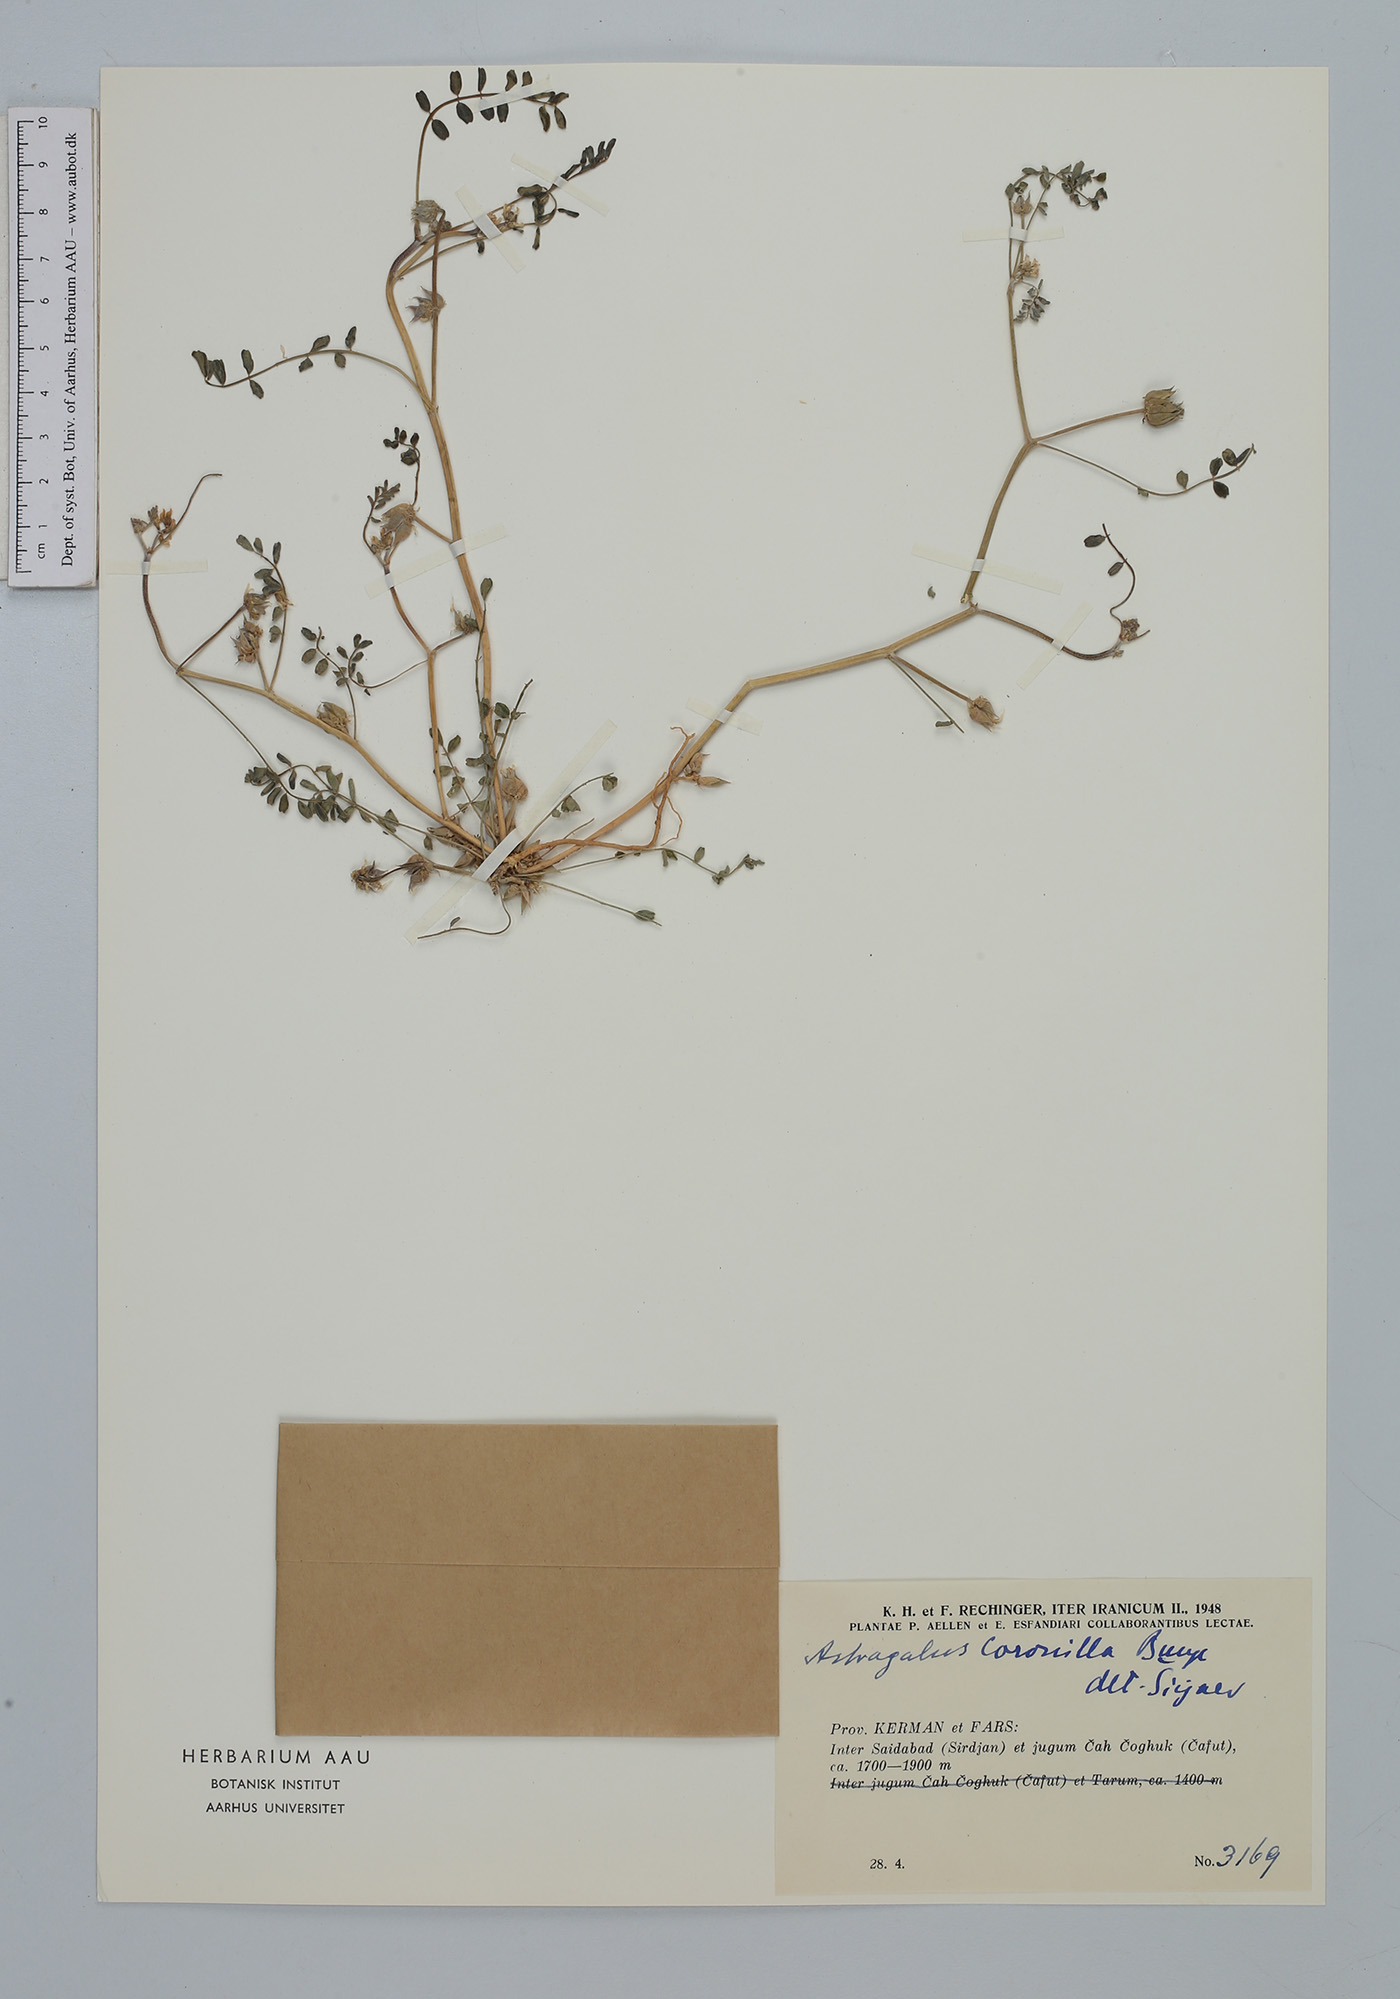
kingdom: Plantae
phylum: Tracheophyta
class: Magnoliopsida
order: Fabales
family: Fabaceae
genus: Astragalus
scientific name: Astragalus coronilla
